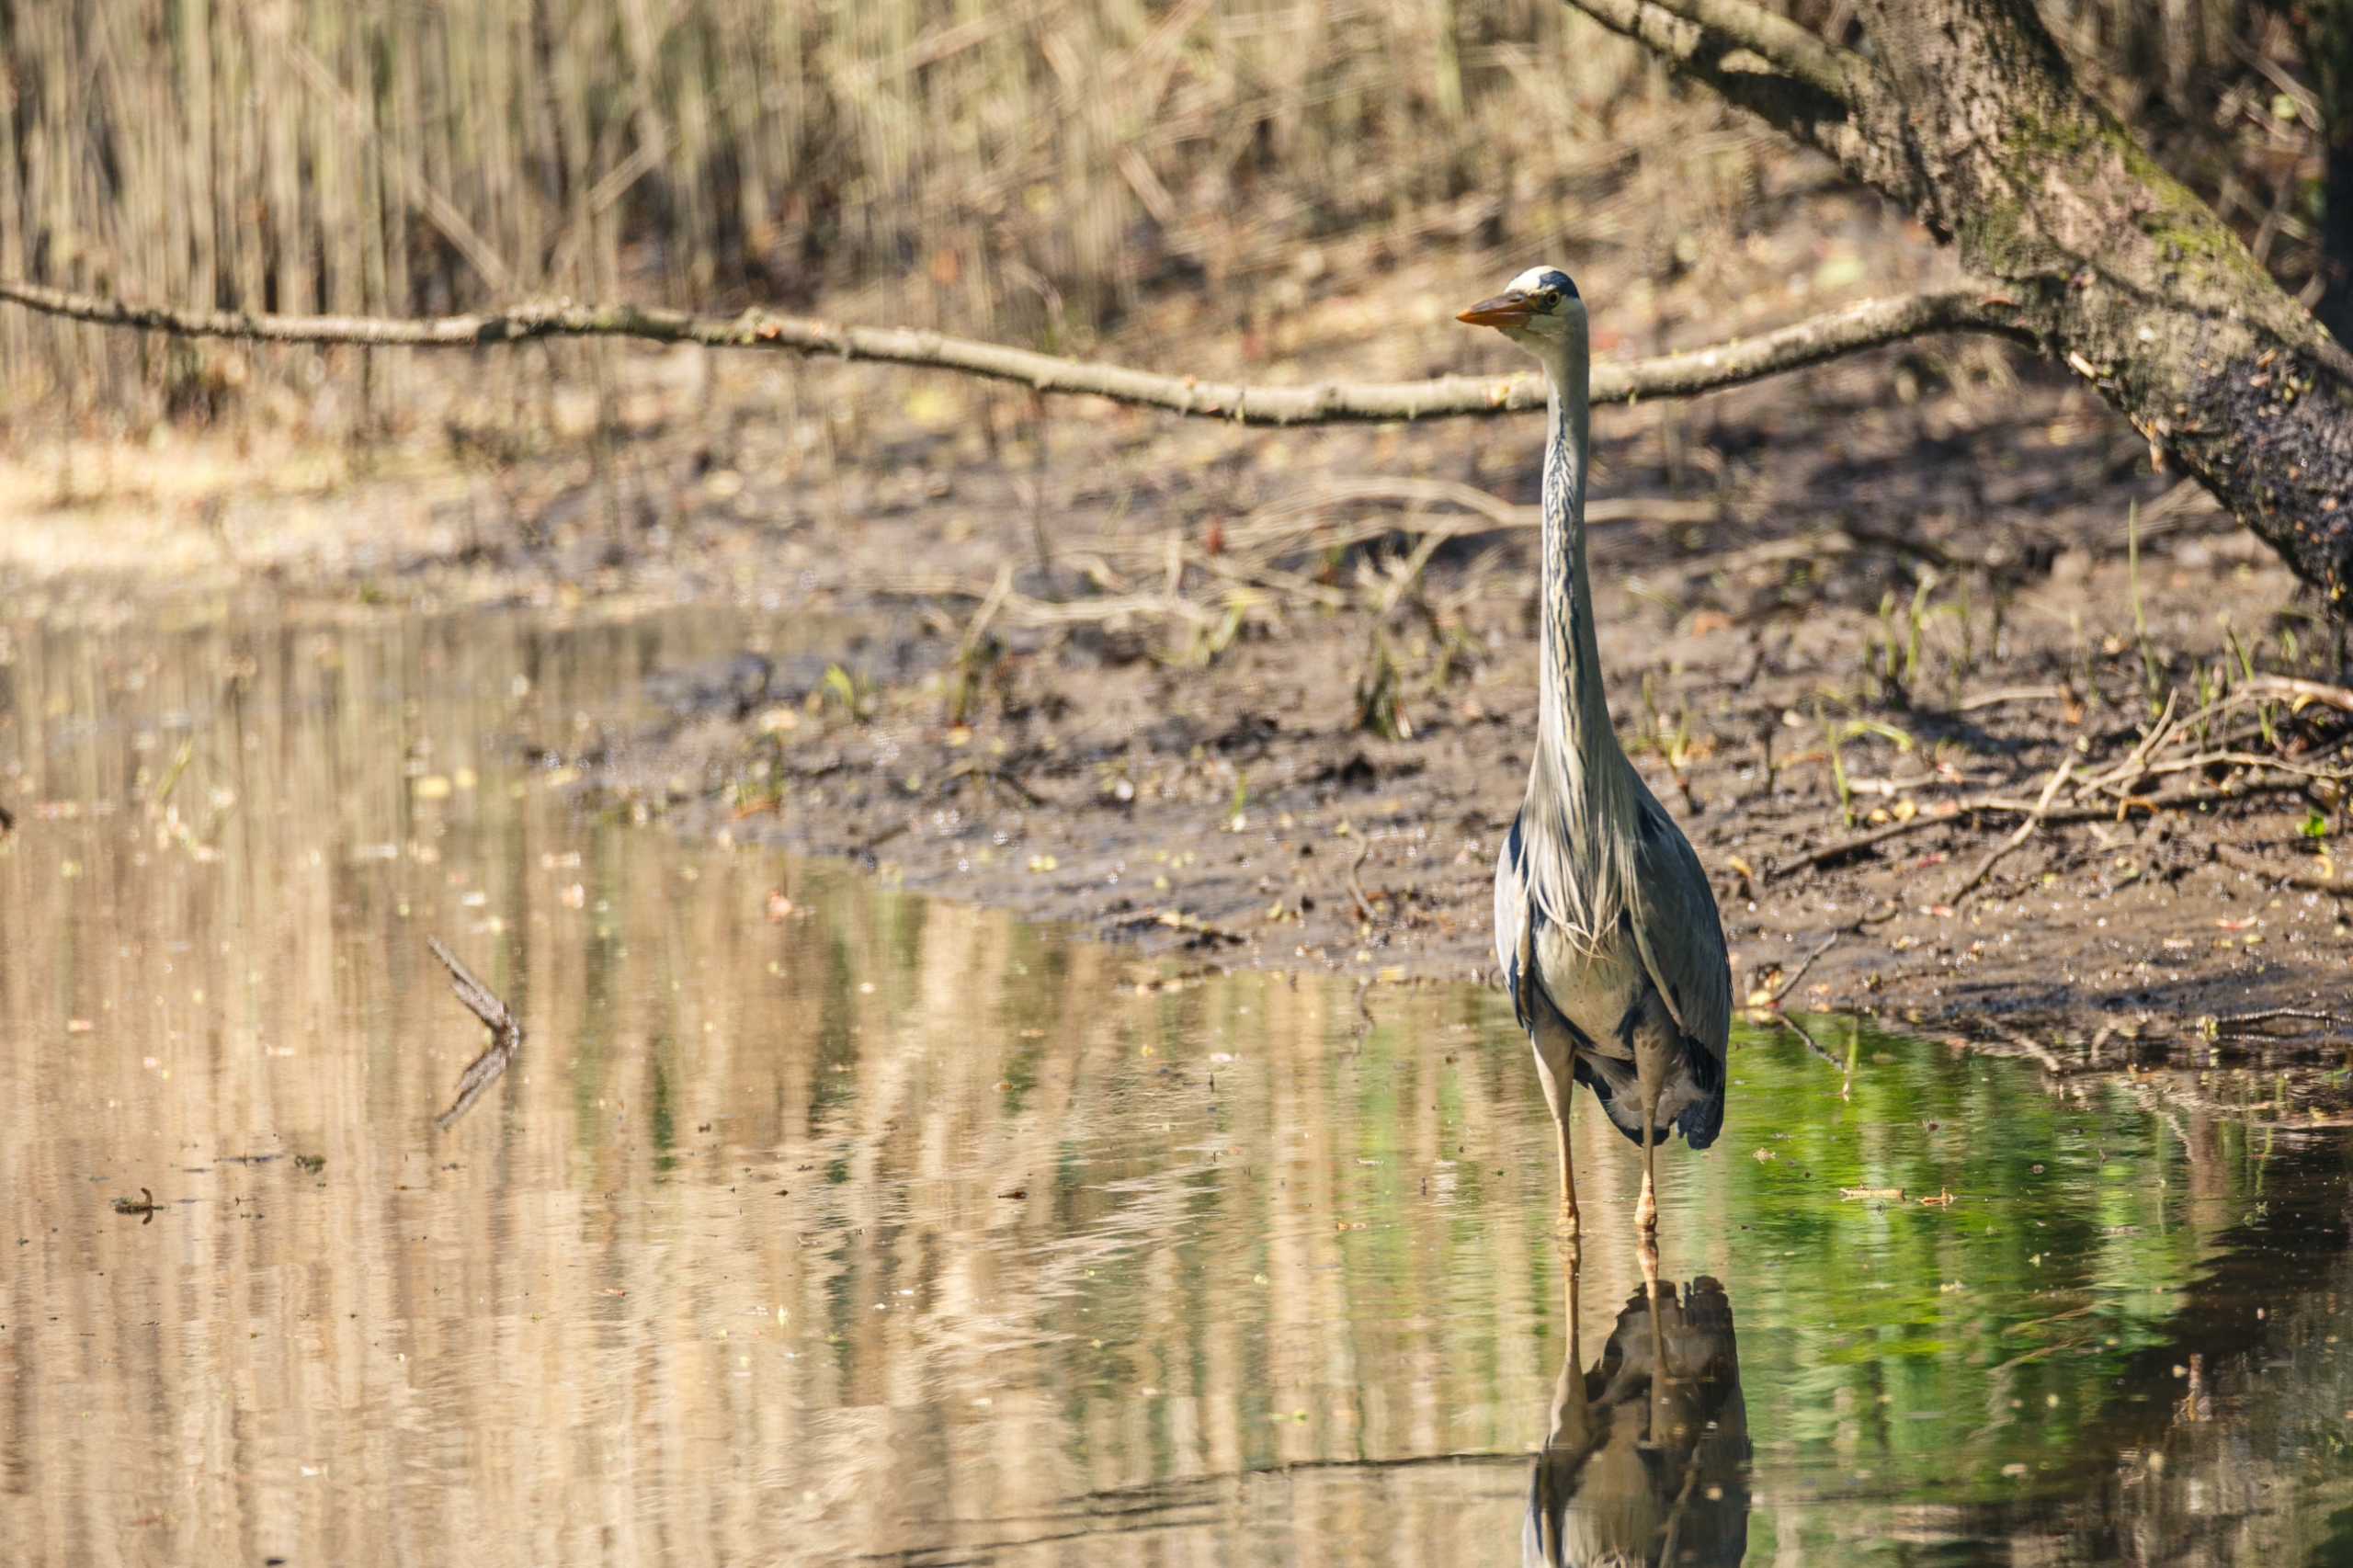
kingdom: Animalia
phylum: Chordata
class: Aves
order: Pelecaniformes
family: Ardeidae
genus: Ardea
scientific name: Ardea cinerea
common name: Fiskehejre
